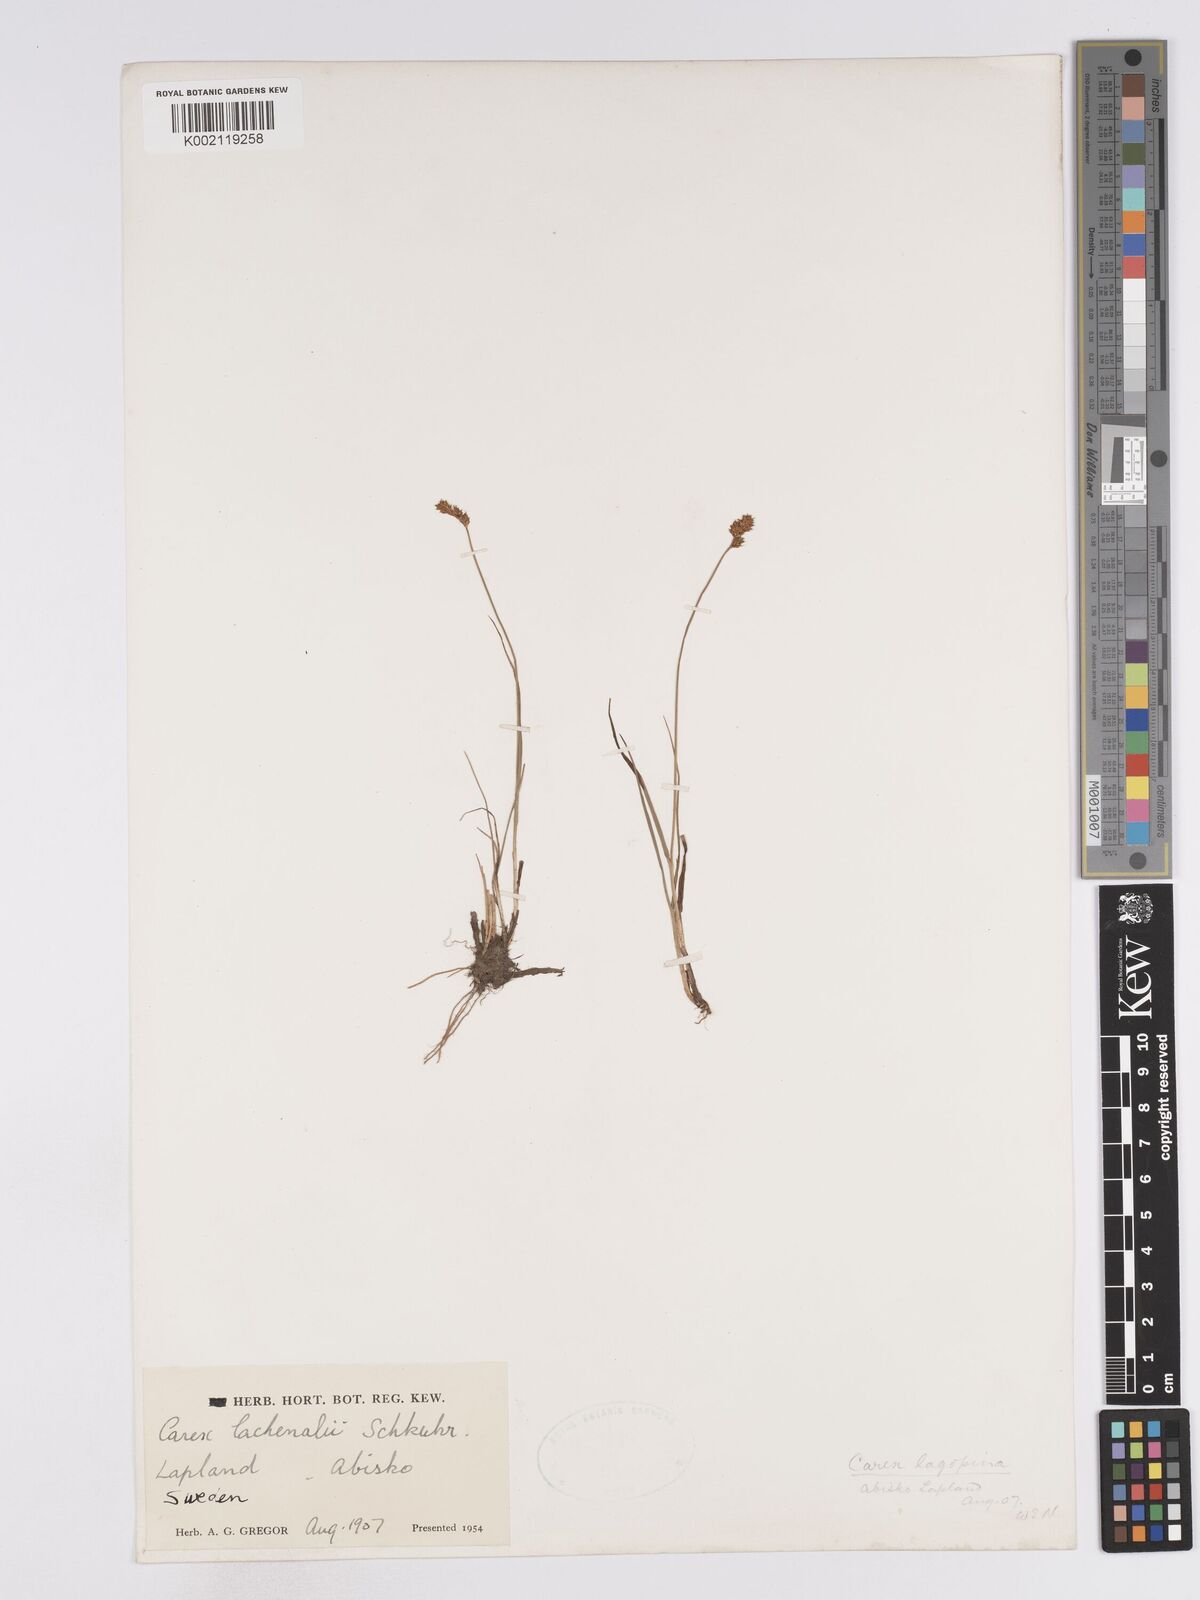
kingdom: Plantae
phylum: Tracheophyta
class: Liliopsida
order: Poales
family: Cyperaceae
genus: Carex
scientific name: Carex lachenalii
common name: Hare's-foot sedge
